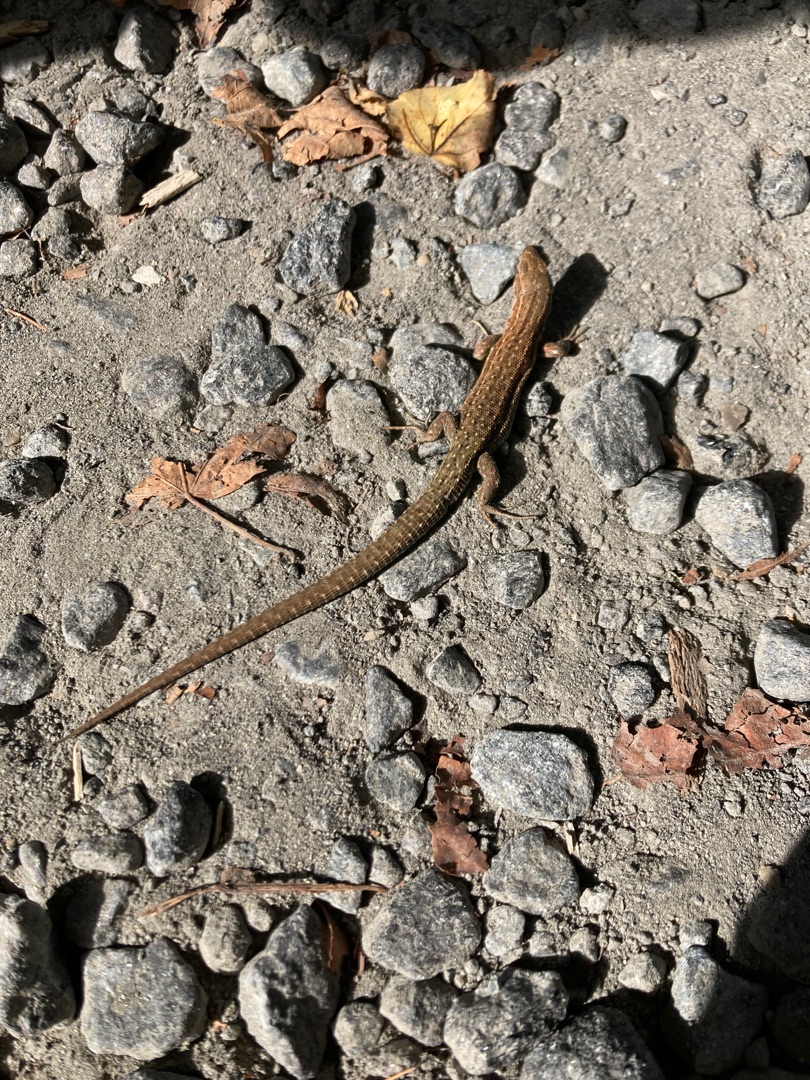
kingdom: Animalia
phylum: Chordata
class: Squamata
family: Lacertidae
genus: Zootoca
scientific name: Zootoca vivipara
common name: Skovfirben
